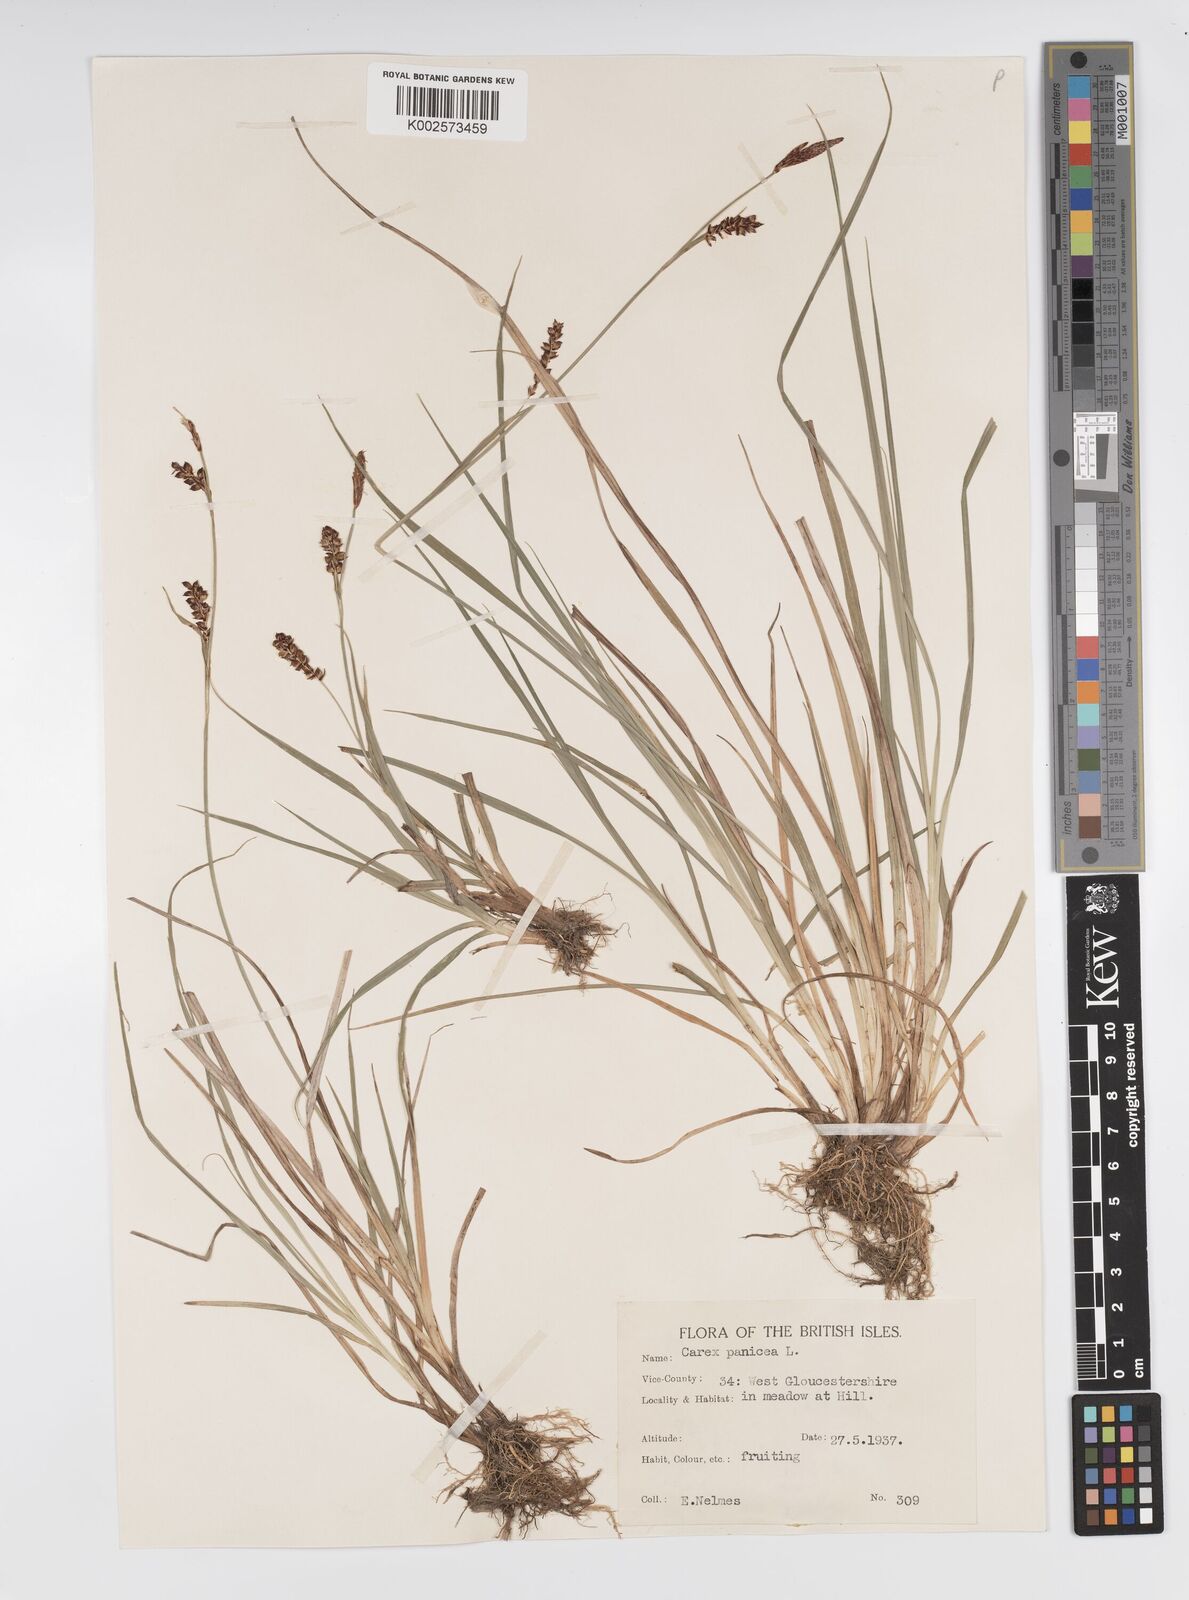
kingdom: Plantae
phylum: Tracheophyta
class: Liliopsida
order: Poales
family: Cyperaceae
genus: Carex
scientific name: Carex panicea
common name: Carnation sedge
